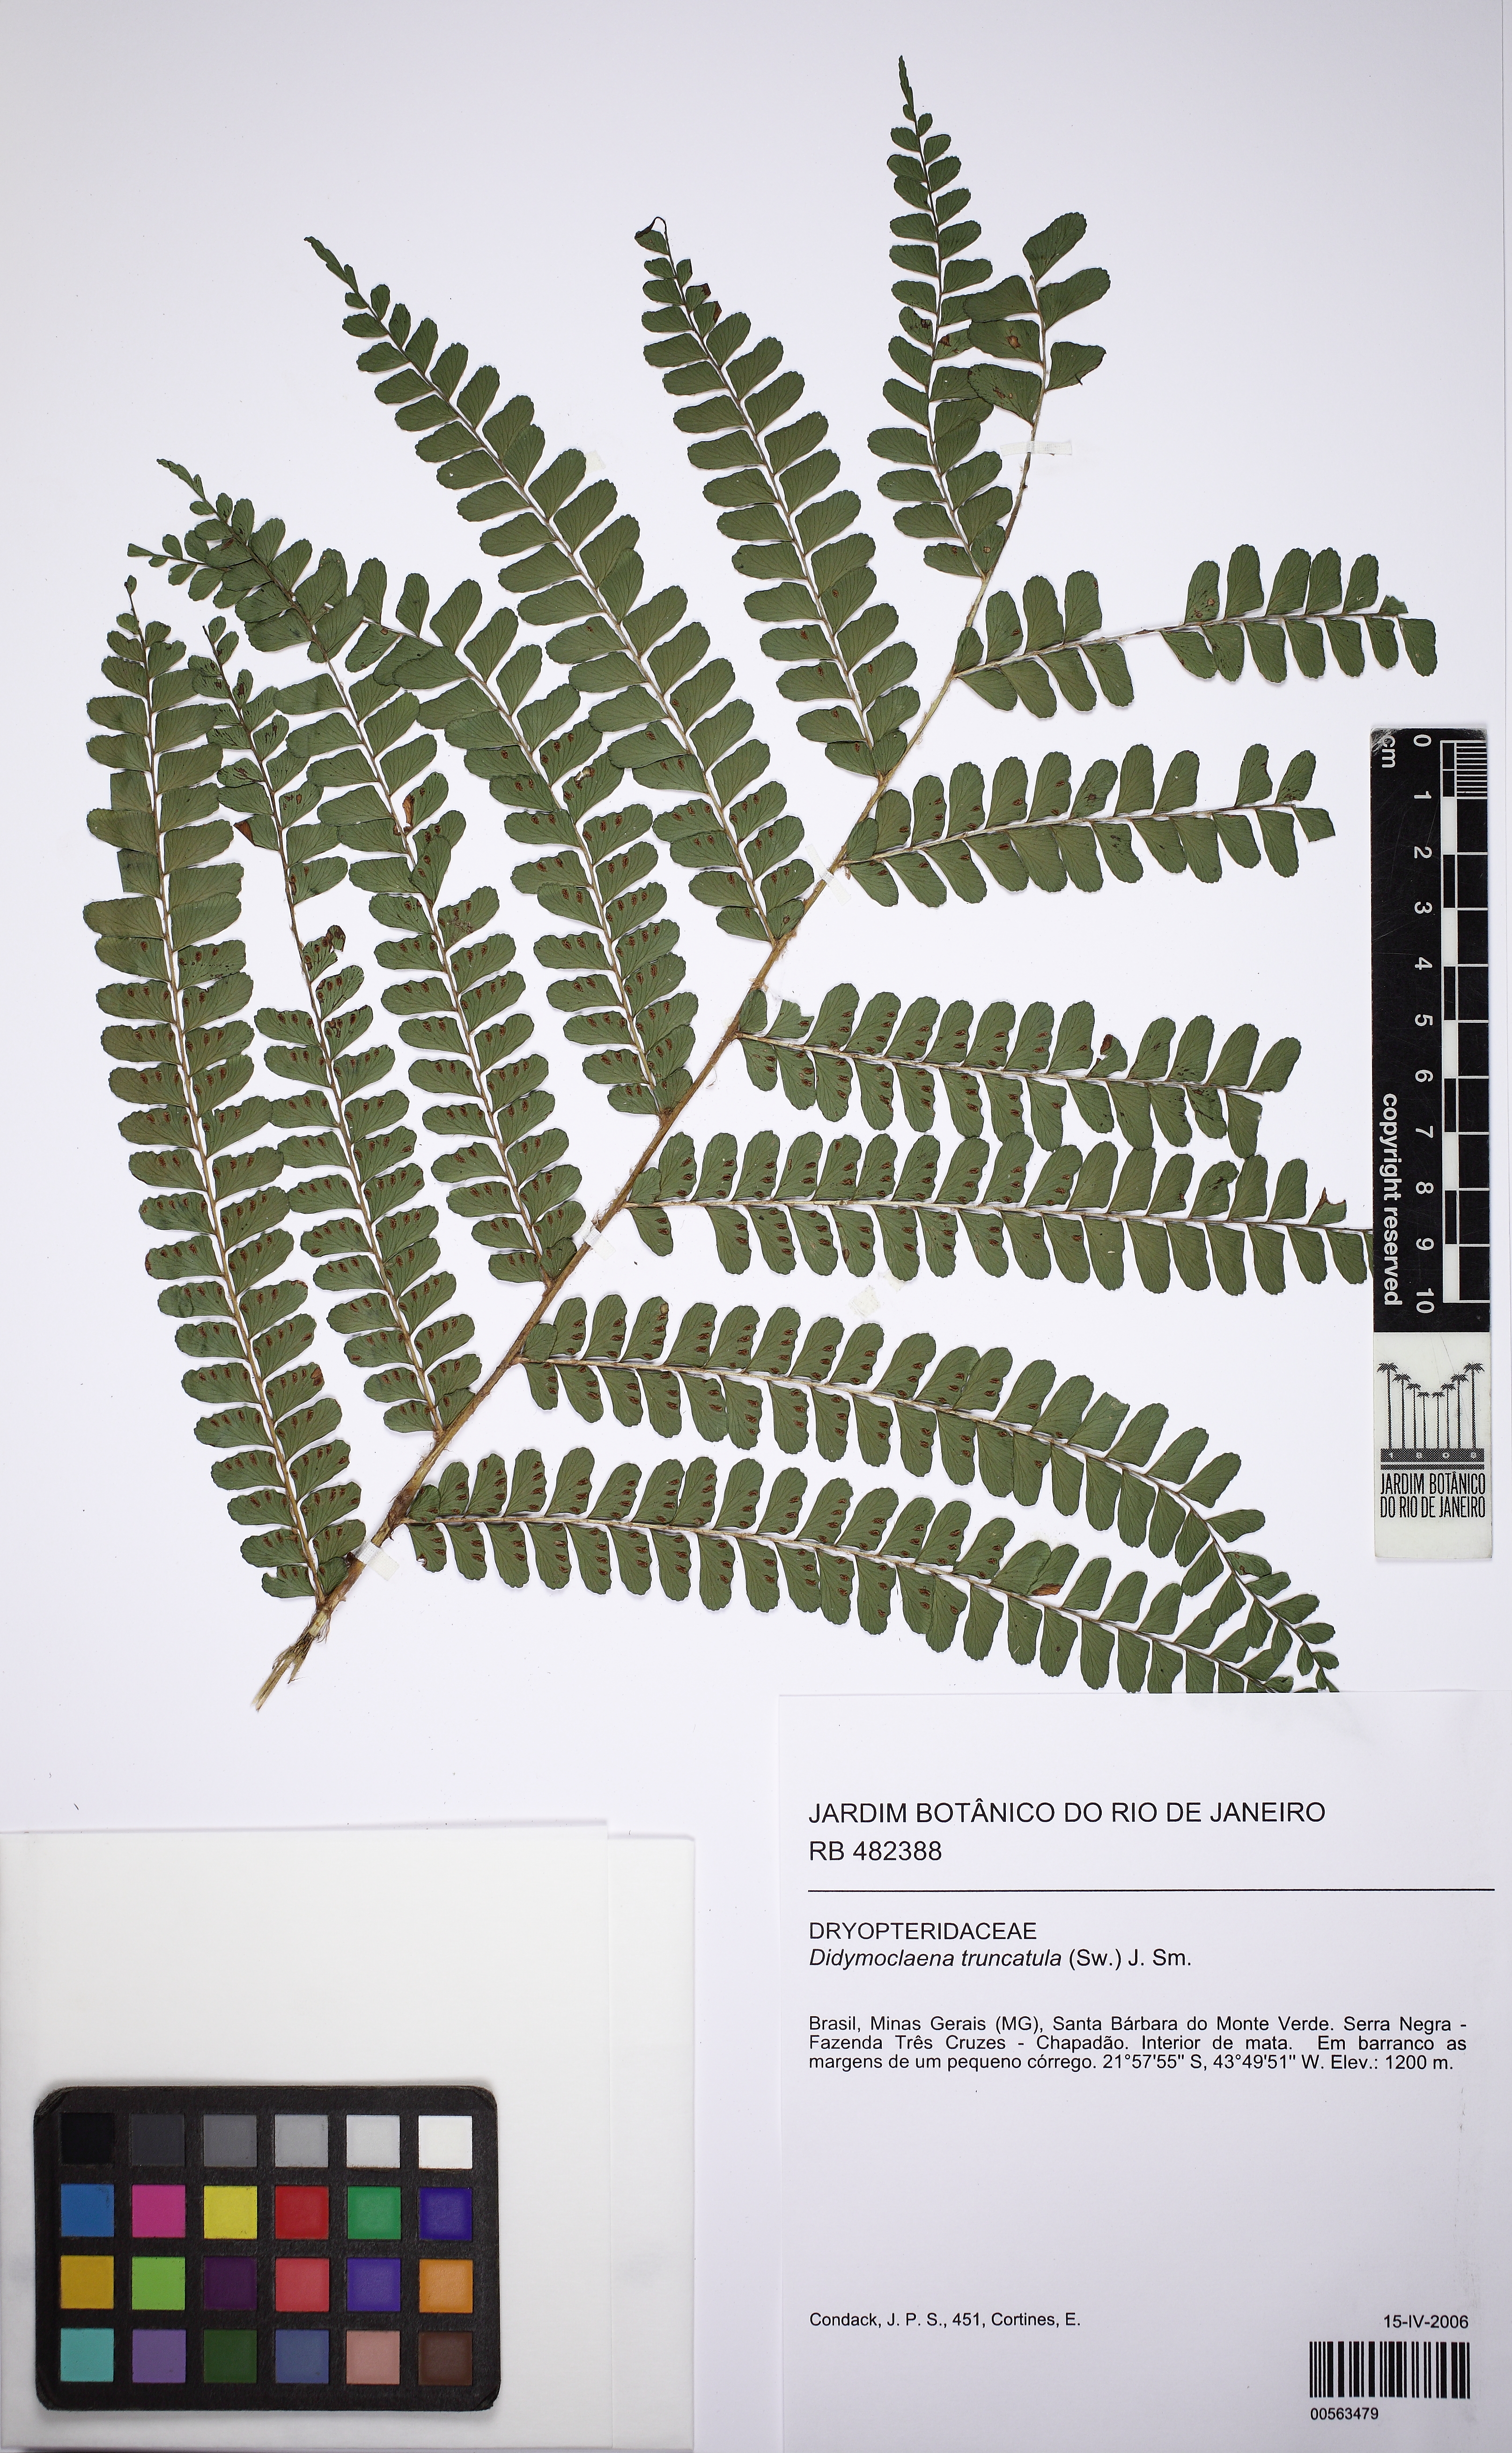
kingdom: Plantae
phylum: Tracheophyta
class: Polypodiopsida
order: Polypodiales
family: Didymochlaenaceae
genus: Didymochlaena
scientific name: Didymochlaena truncatula
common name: Mahogany fern
